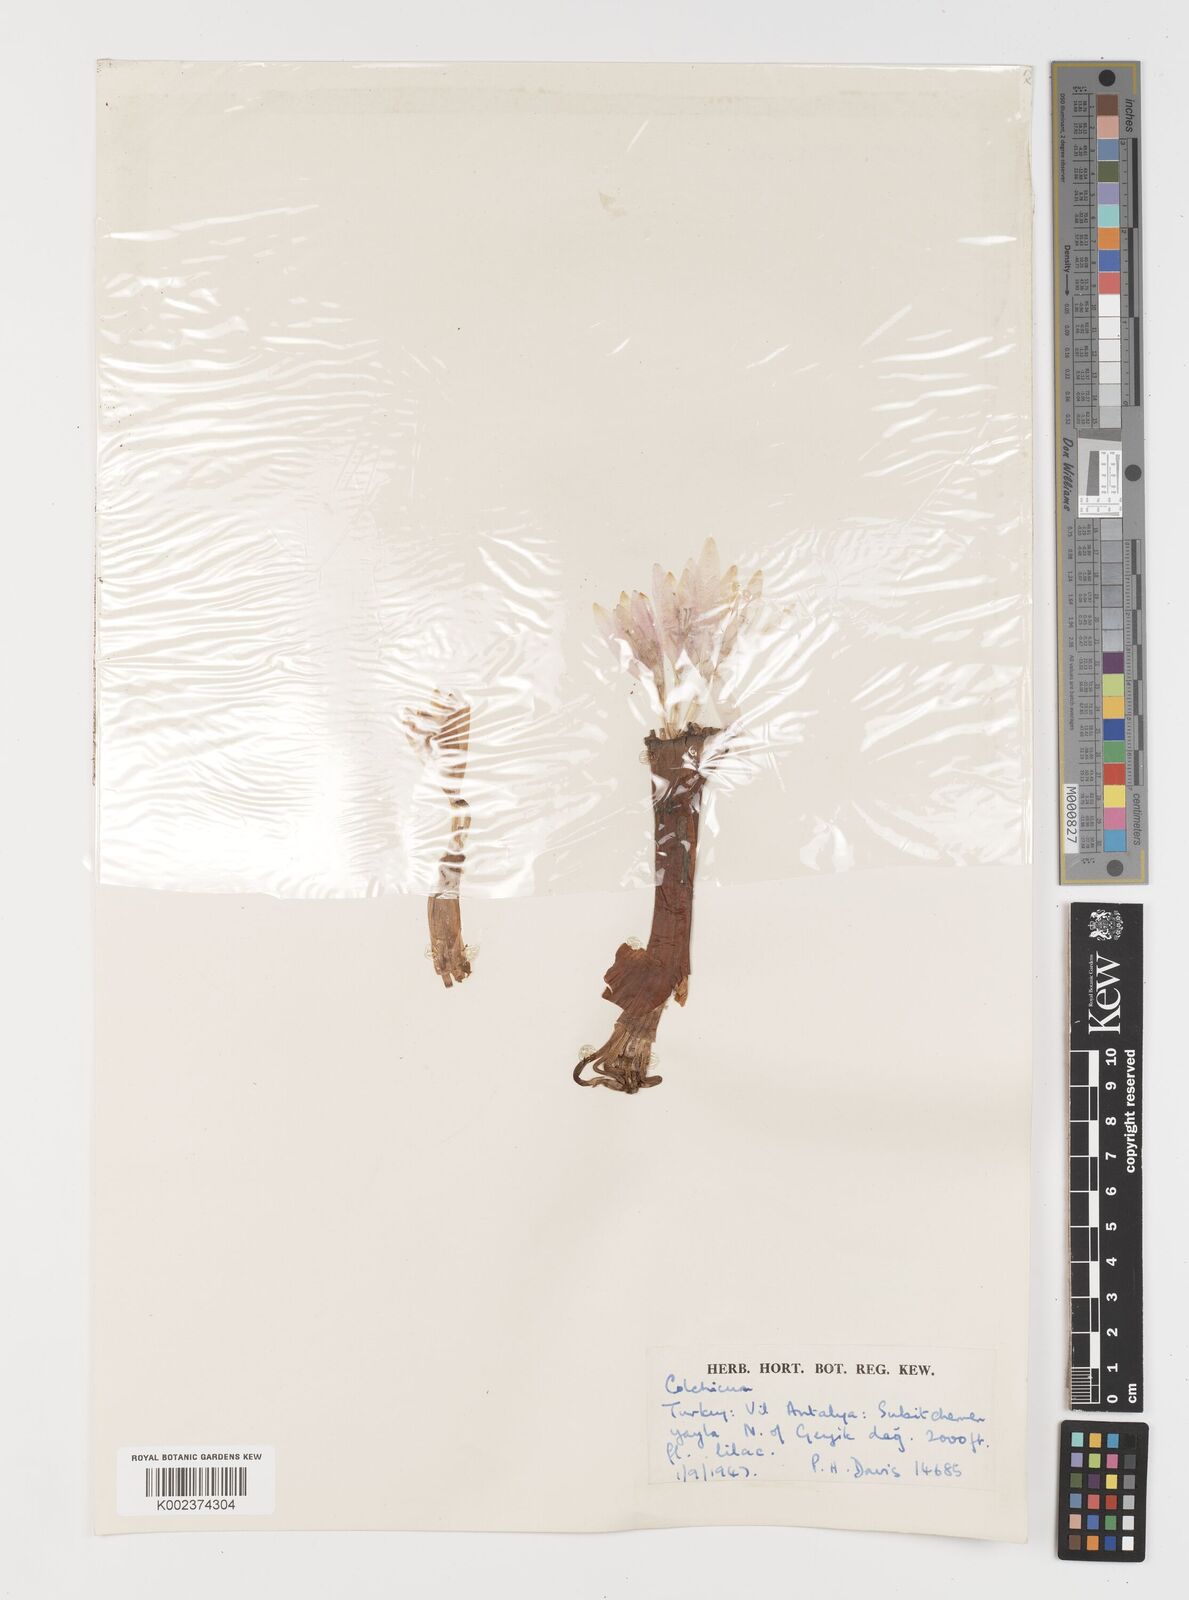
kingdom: Plantae
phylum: Tracheophyta
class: Liliopsida
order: Liliales
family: Colchicaceae
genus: Colchicum
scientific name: Colchicum
